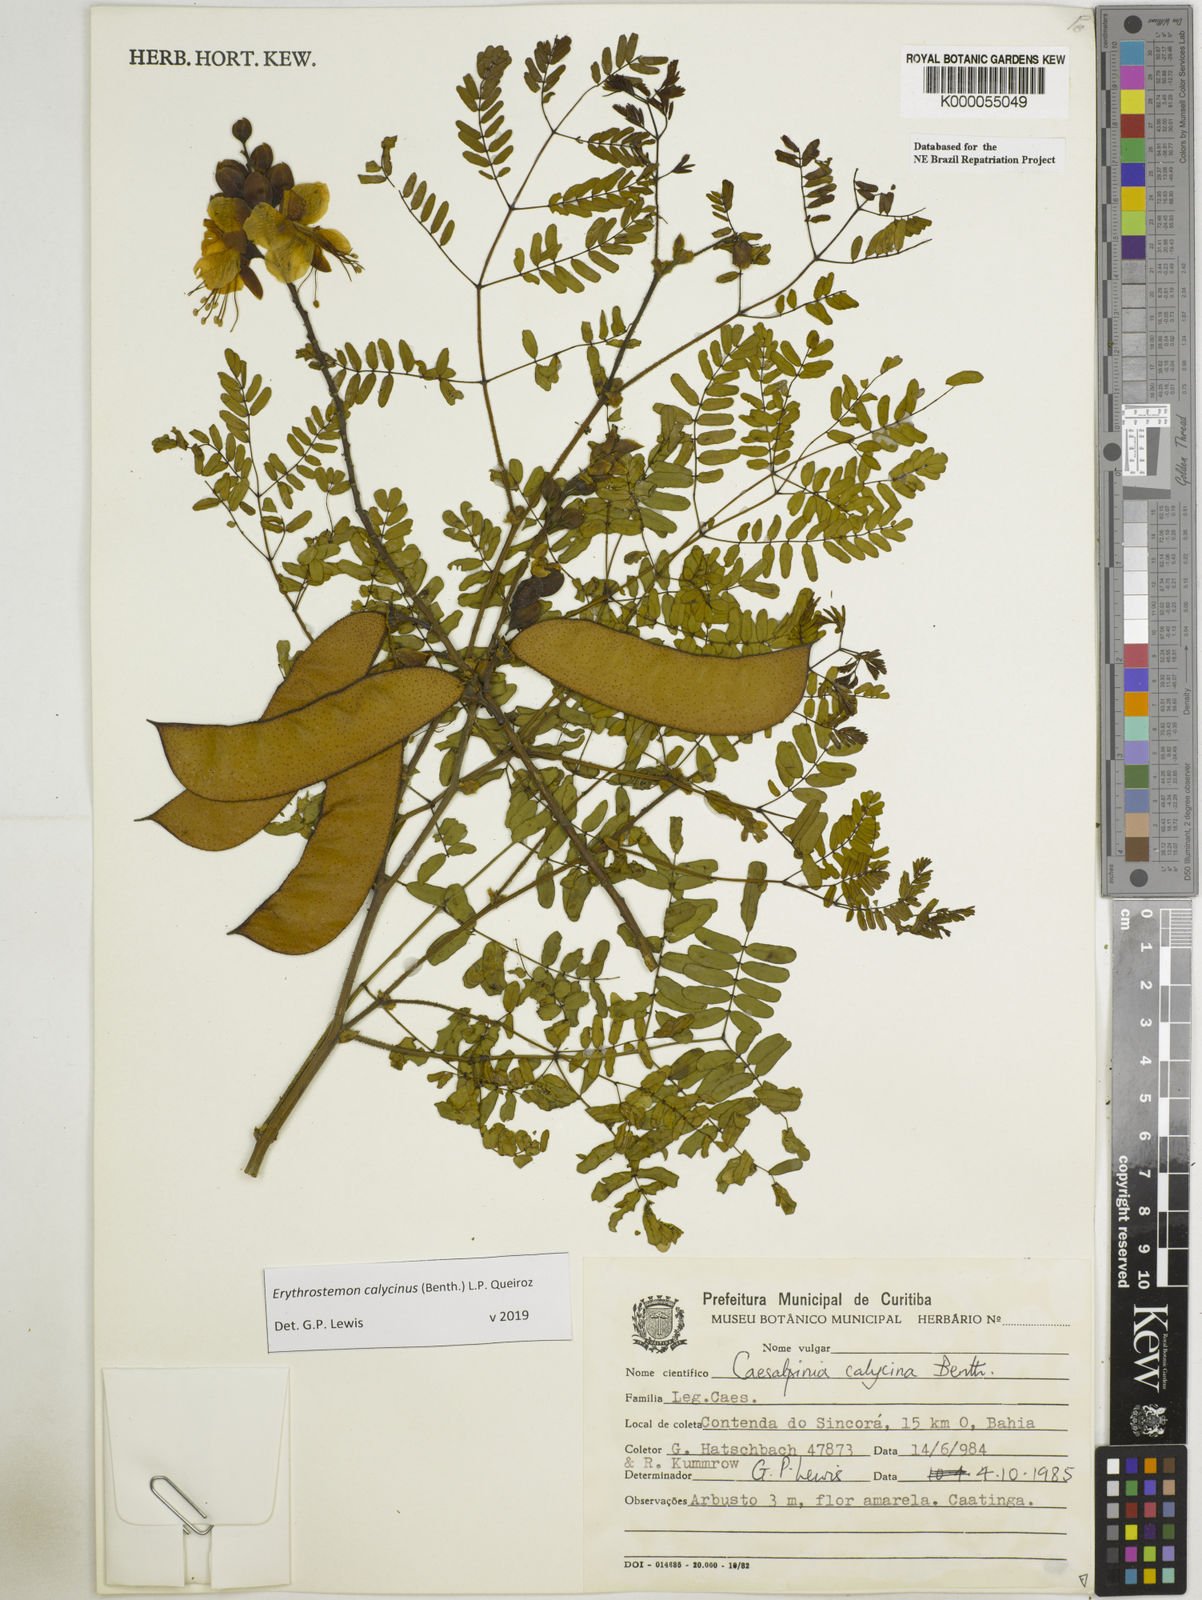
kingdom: Plantae
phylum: Tracheophyta
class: Magnoliopsida
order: Fabales
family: Fabaceae
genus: Erythrostemon
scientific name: Erythrostemon calycinus
